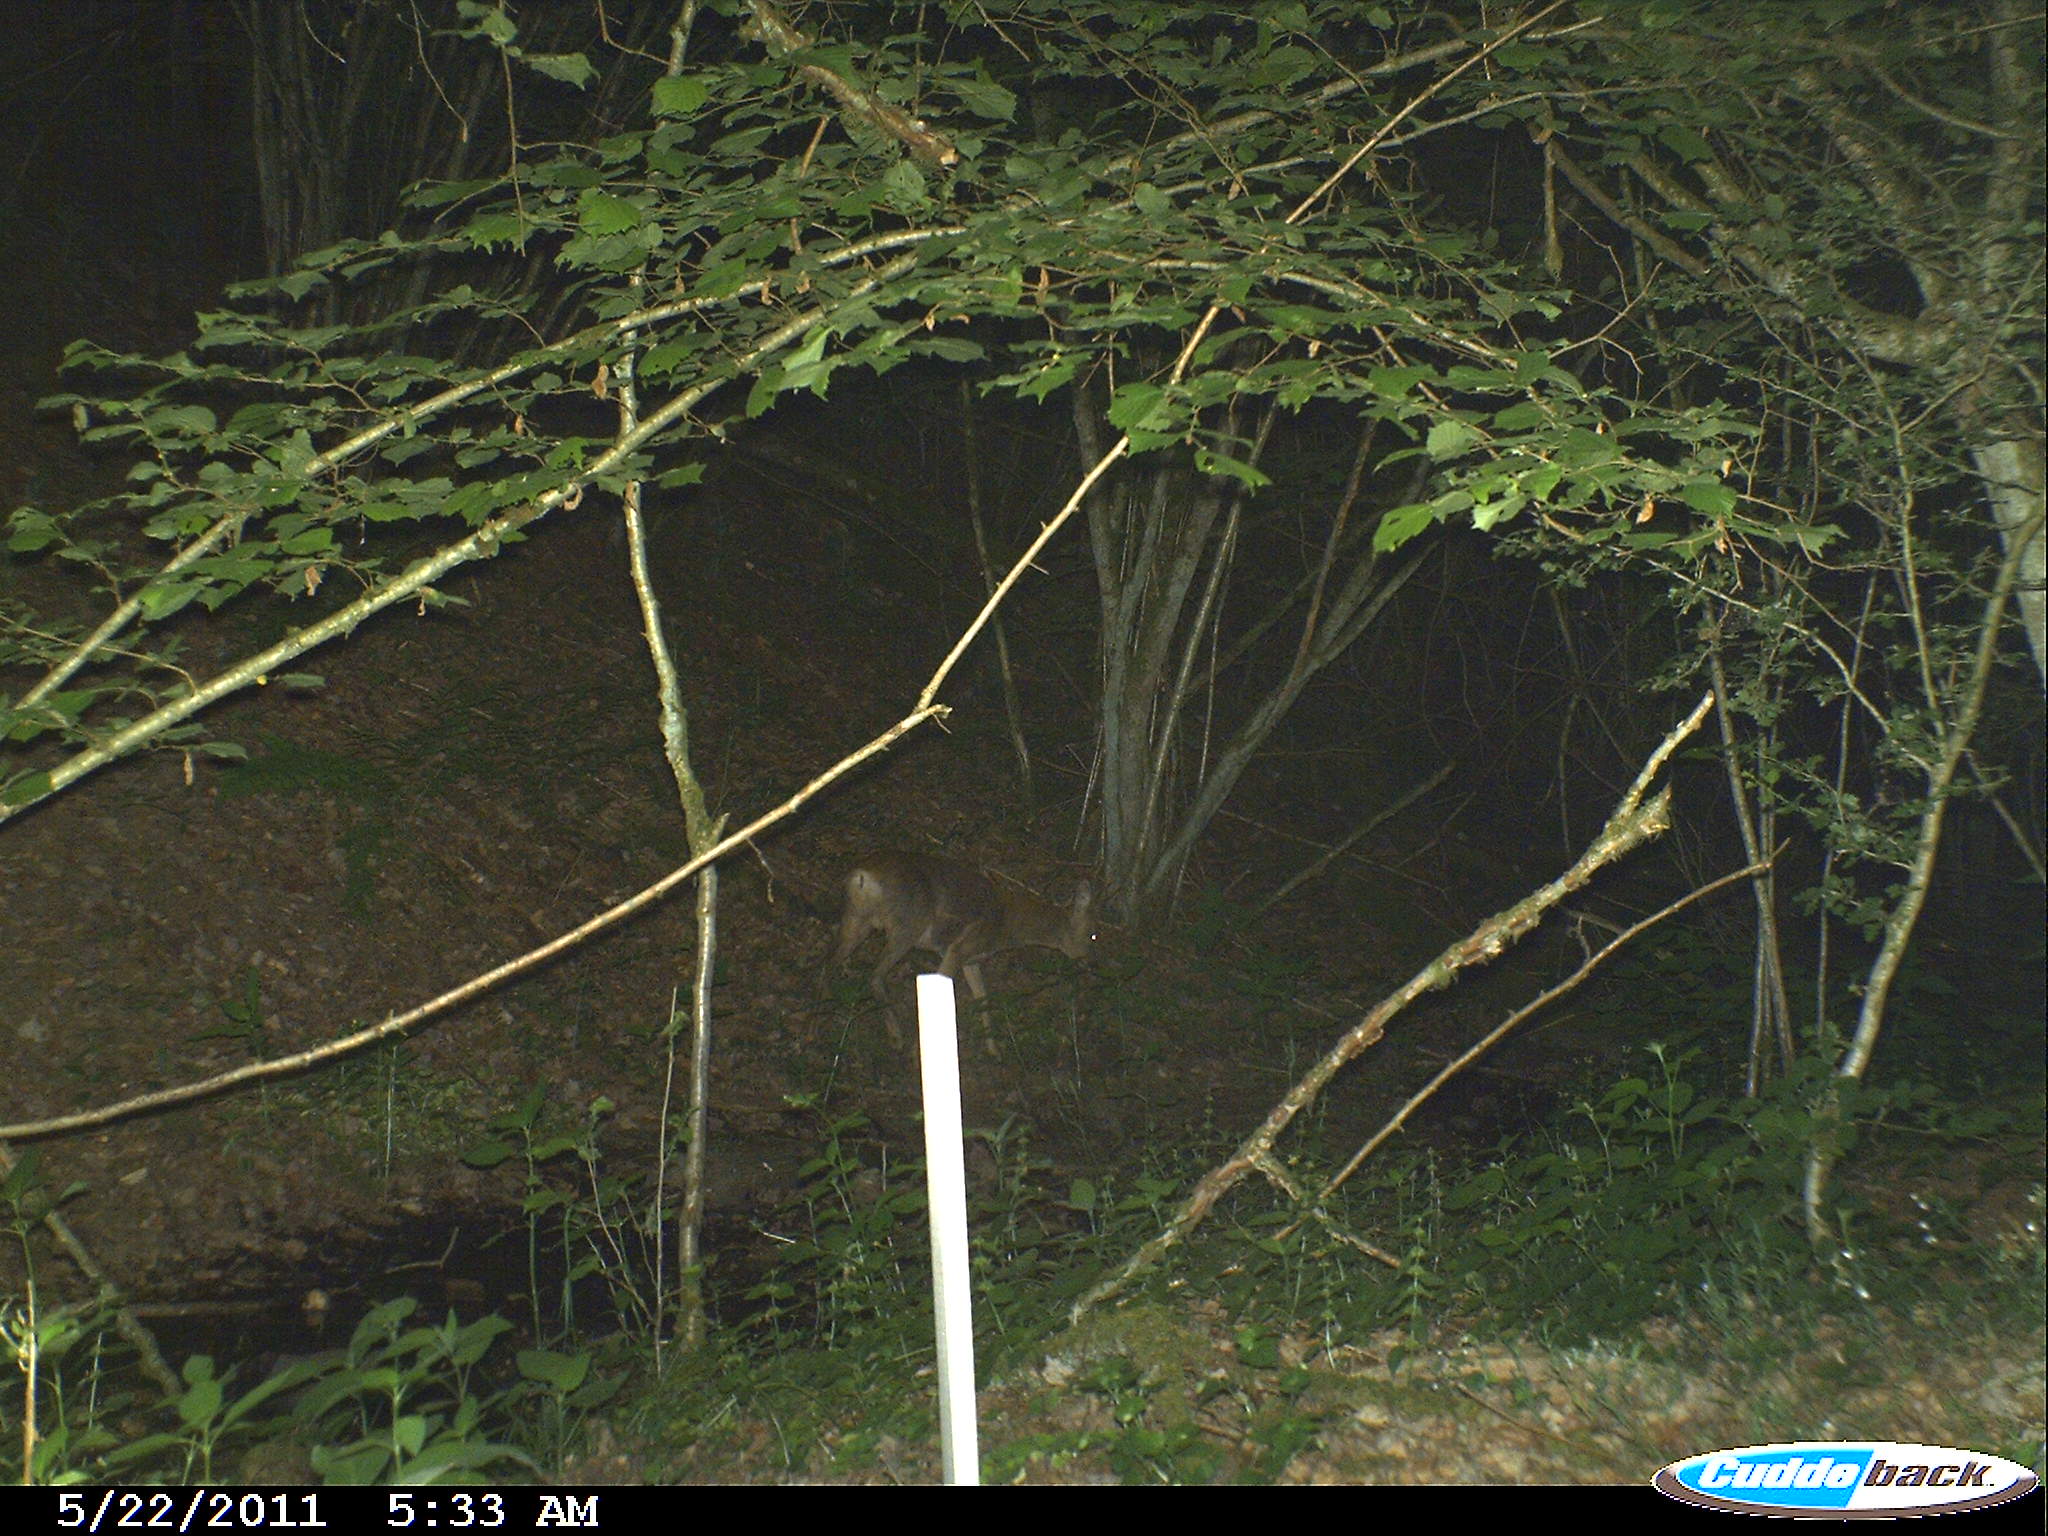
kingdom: Animalia
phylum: Chordata
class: Mammalia
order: Artiodactyla
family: Cervidae
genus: Capreolus
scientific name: Capreolus capreolus
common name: Western roe deer
